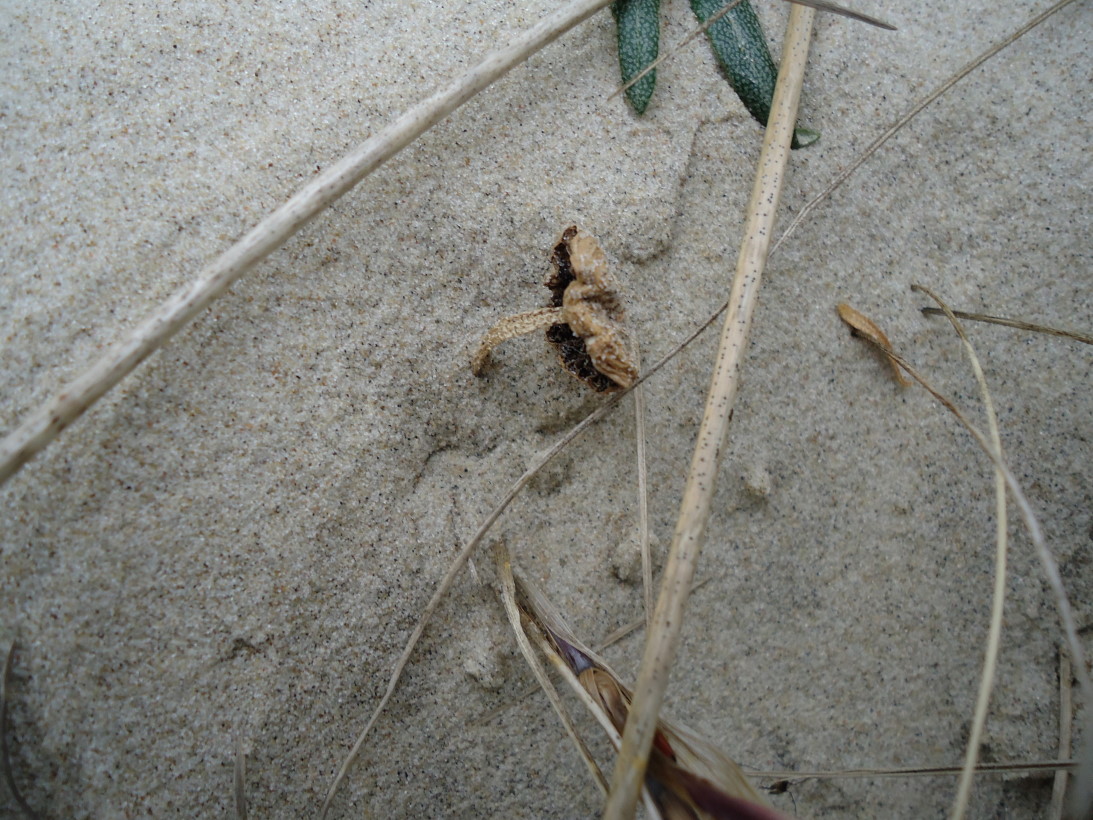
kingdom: Fungi
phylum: Basidiomycota
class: Agaricomycetes
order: Agaricales
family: Psathyrellaceae
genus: Psathyrella
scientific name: Psathyrella ammophila
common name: klit-mørkhat
